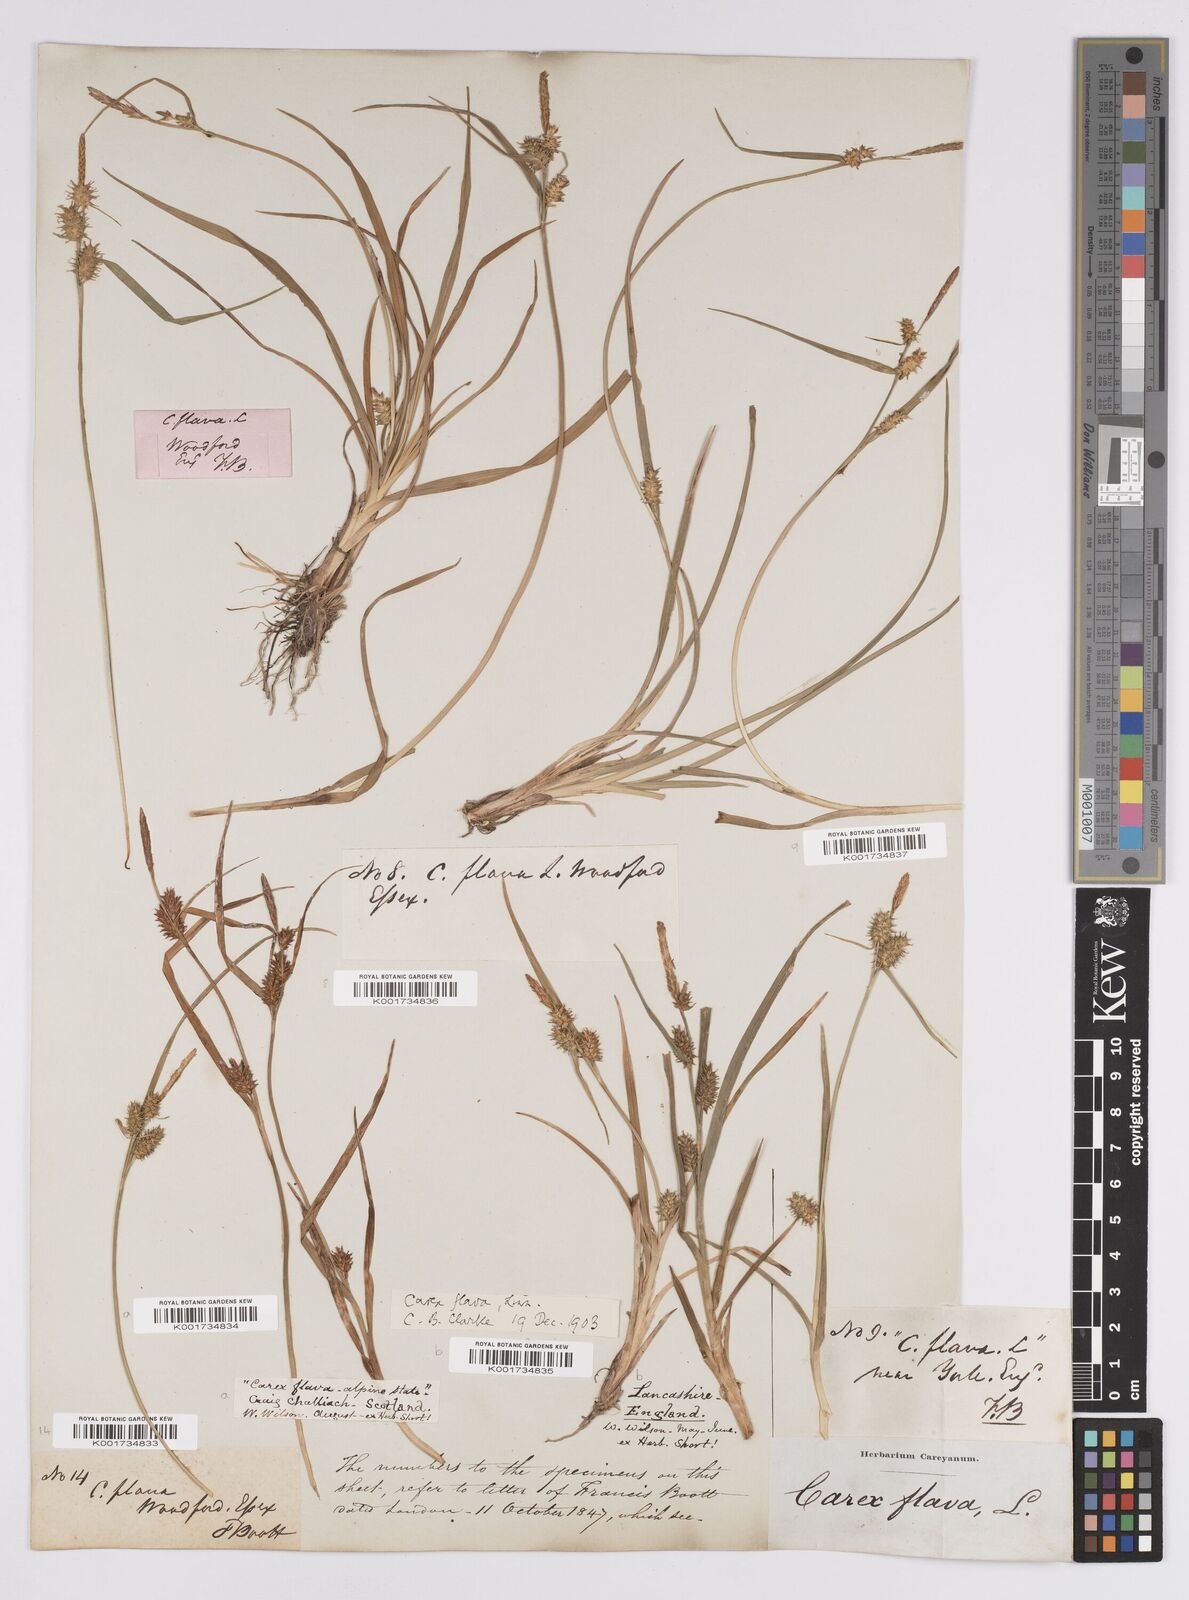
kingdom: Plantae
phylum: Tracheophyta
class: Liliopsida
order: Poales
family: Cyperaceae
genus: Carex
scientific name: Carex flava
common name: Large yellow-sedge
